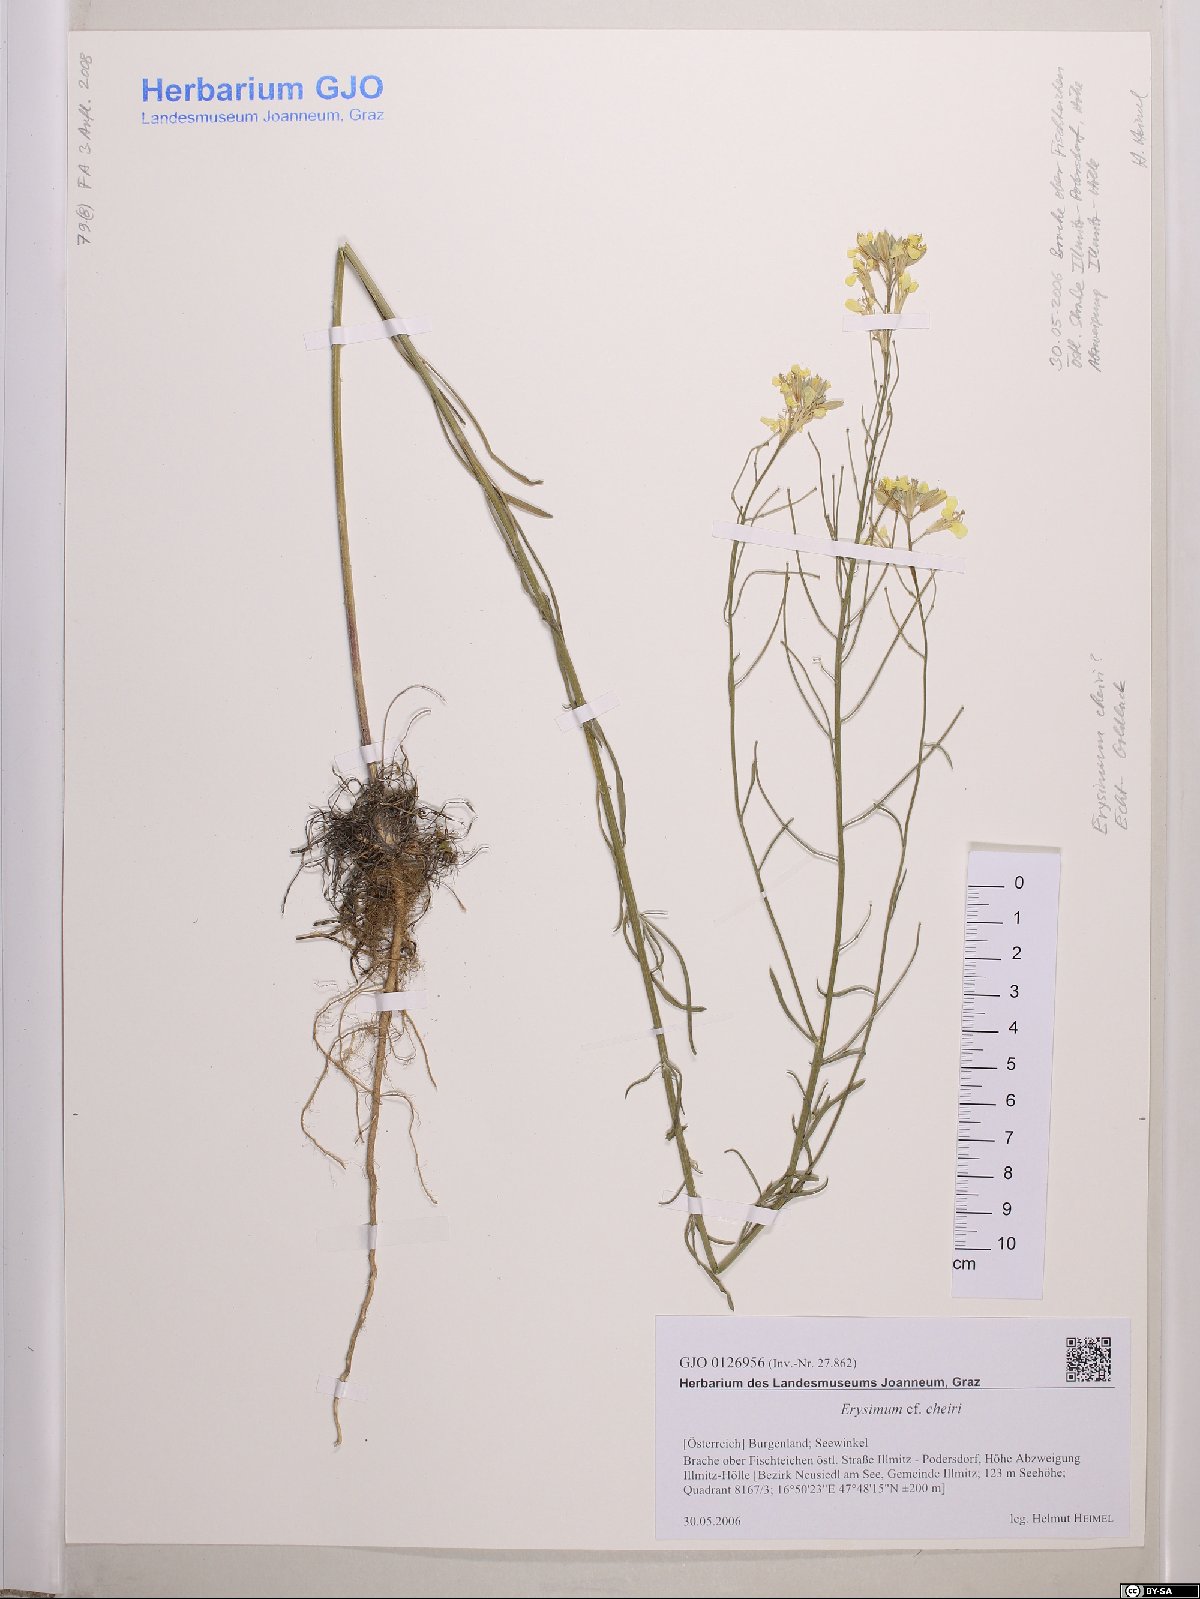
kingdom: Plantae
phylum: Tracheophyta
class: Magnoliopsida
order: Brassicales
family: Brassicaceae
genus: Erysimum
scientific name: Erysimum cheiri
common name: Wallflower
